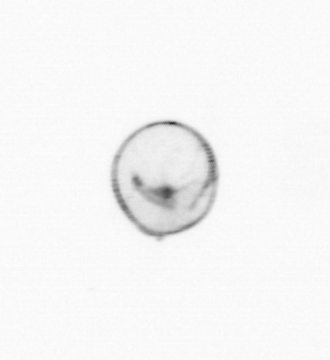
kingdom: Chromista
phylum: Myzozoa
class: Dinophyceae
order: Noctilucales
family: Noctilucaceae
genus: Noctiluca
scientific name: Noctiluca scintillans
